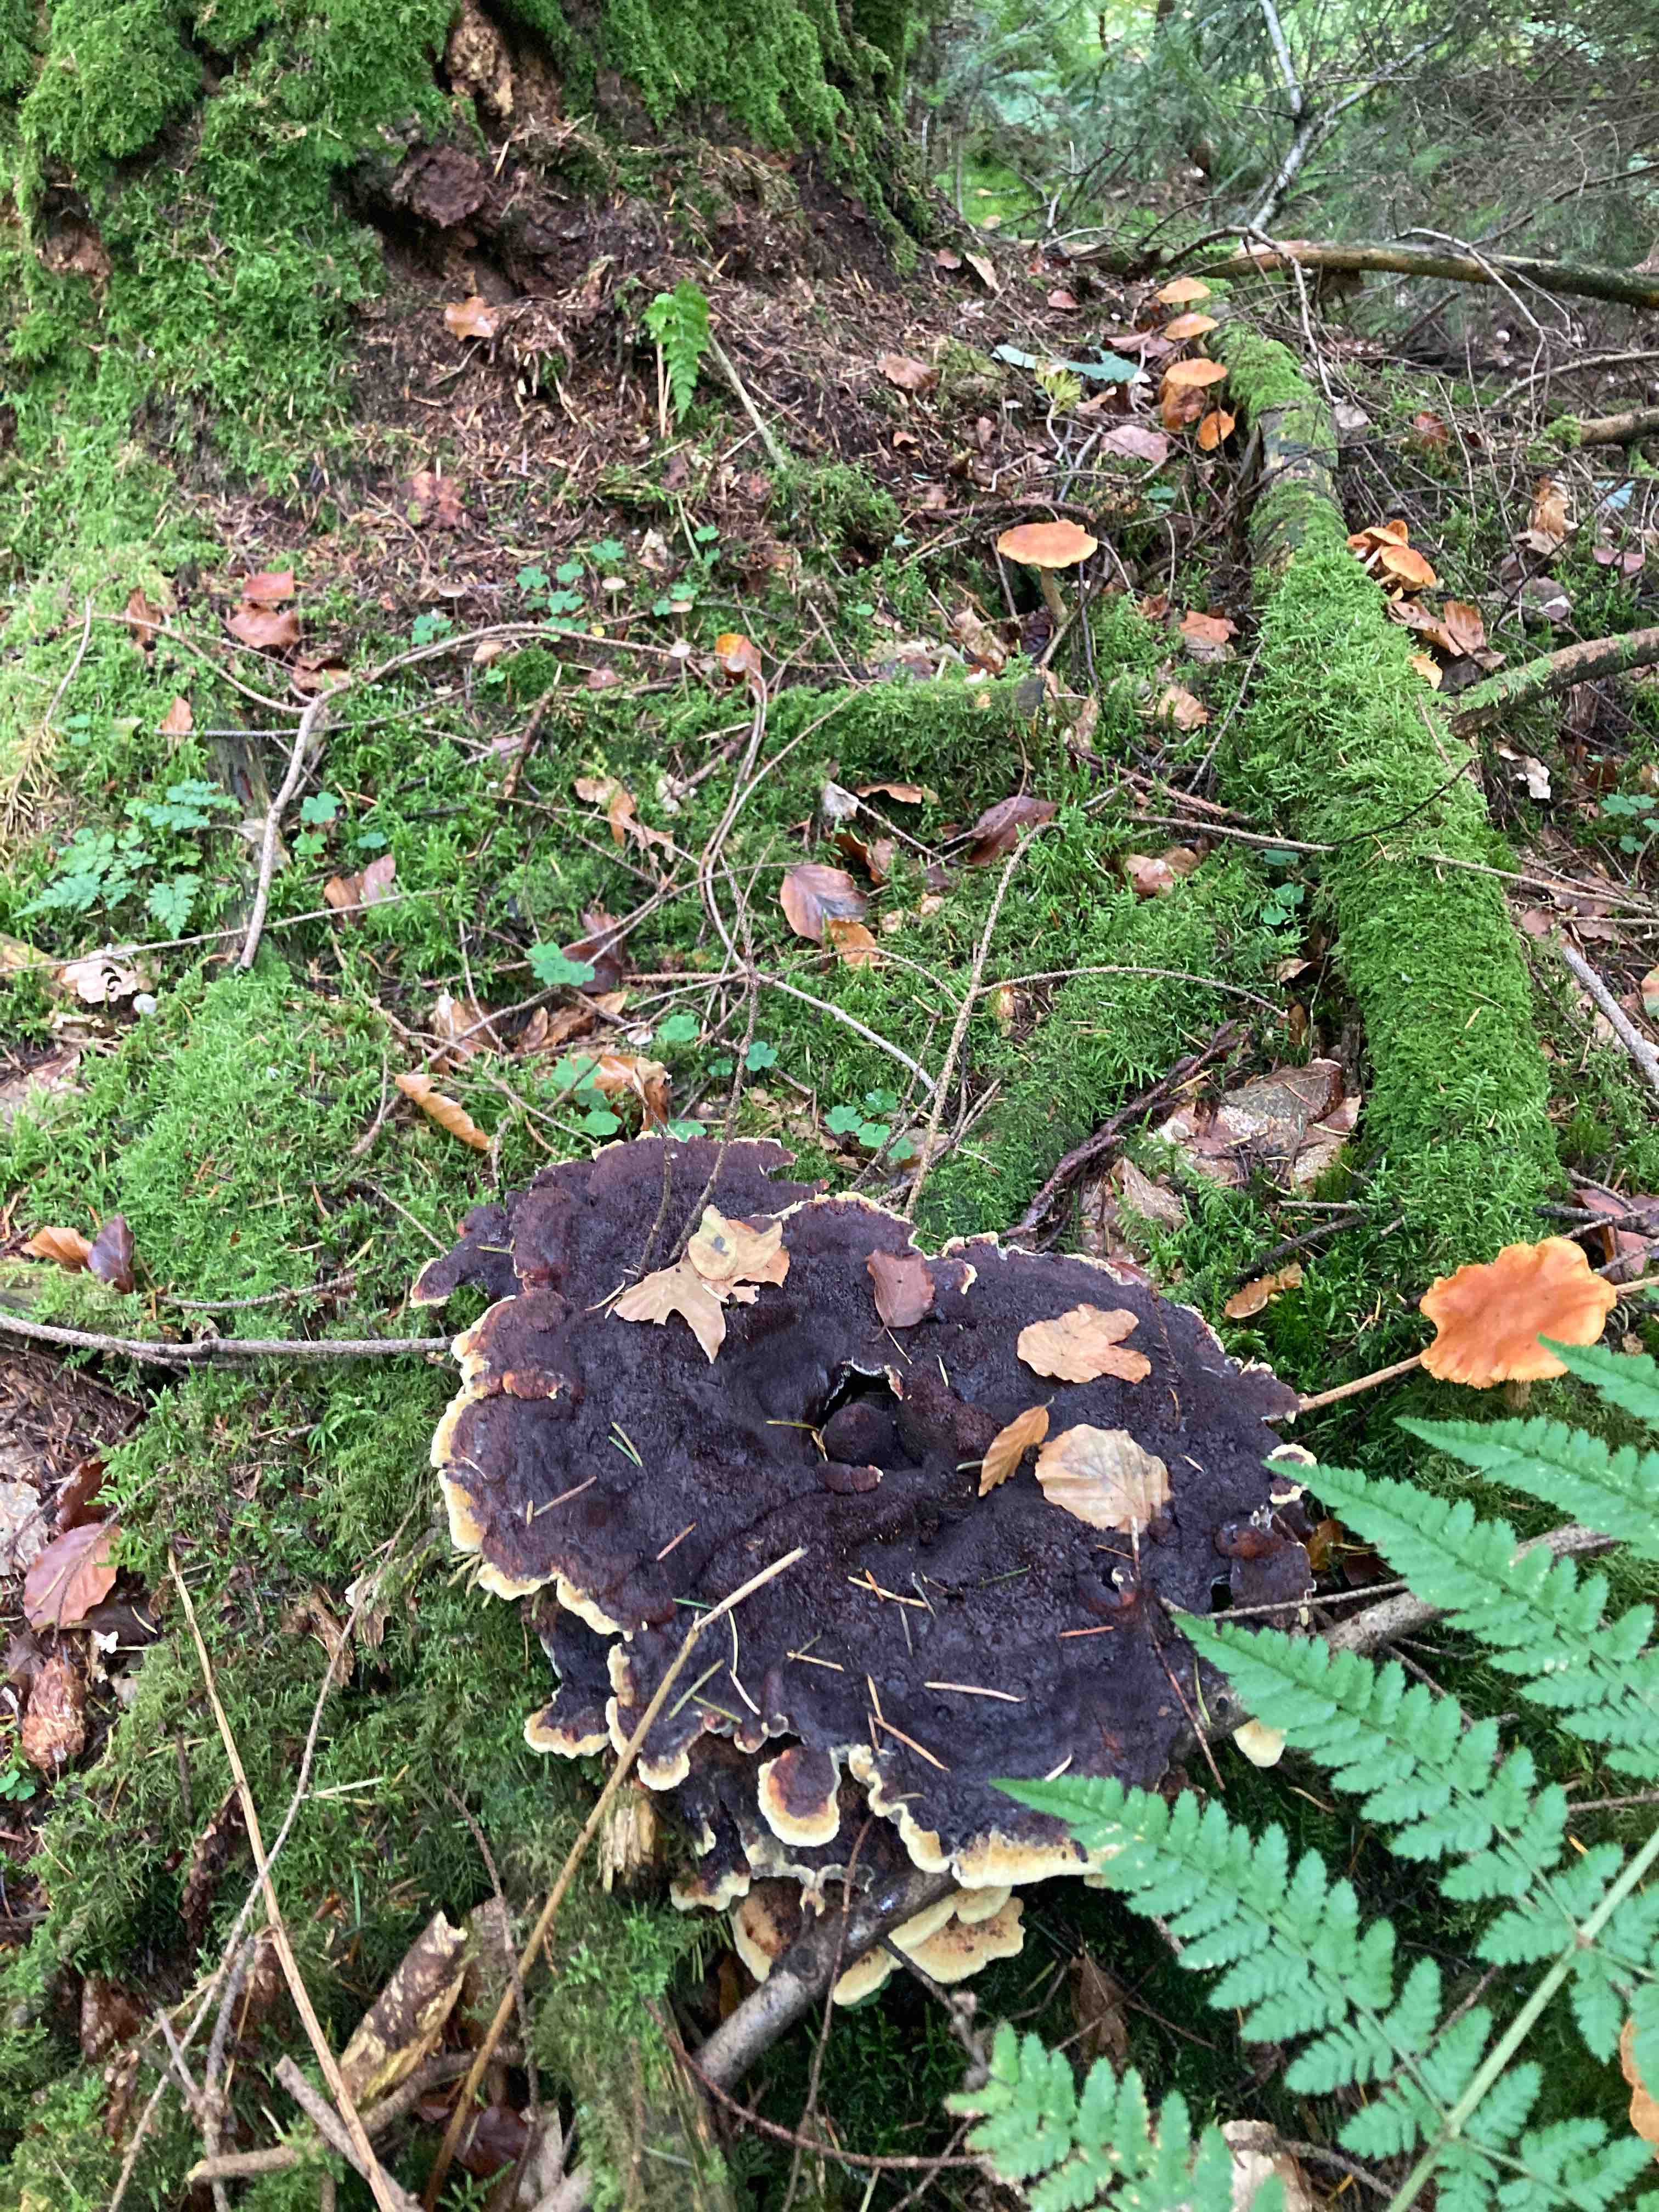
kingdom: Fungi
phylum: Basidiomycota
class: Agaricomycetes
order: Polyporales
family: Laetiporaceae
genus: Phaeolus
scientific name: Phaeolus schweinitzii
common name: brunporesvamp
